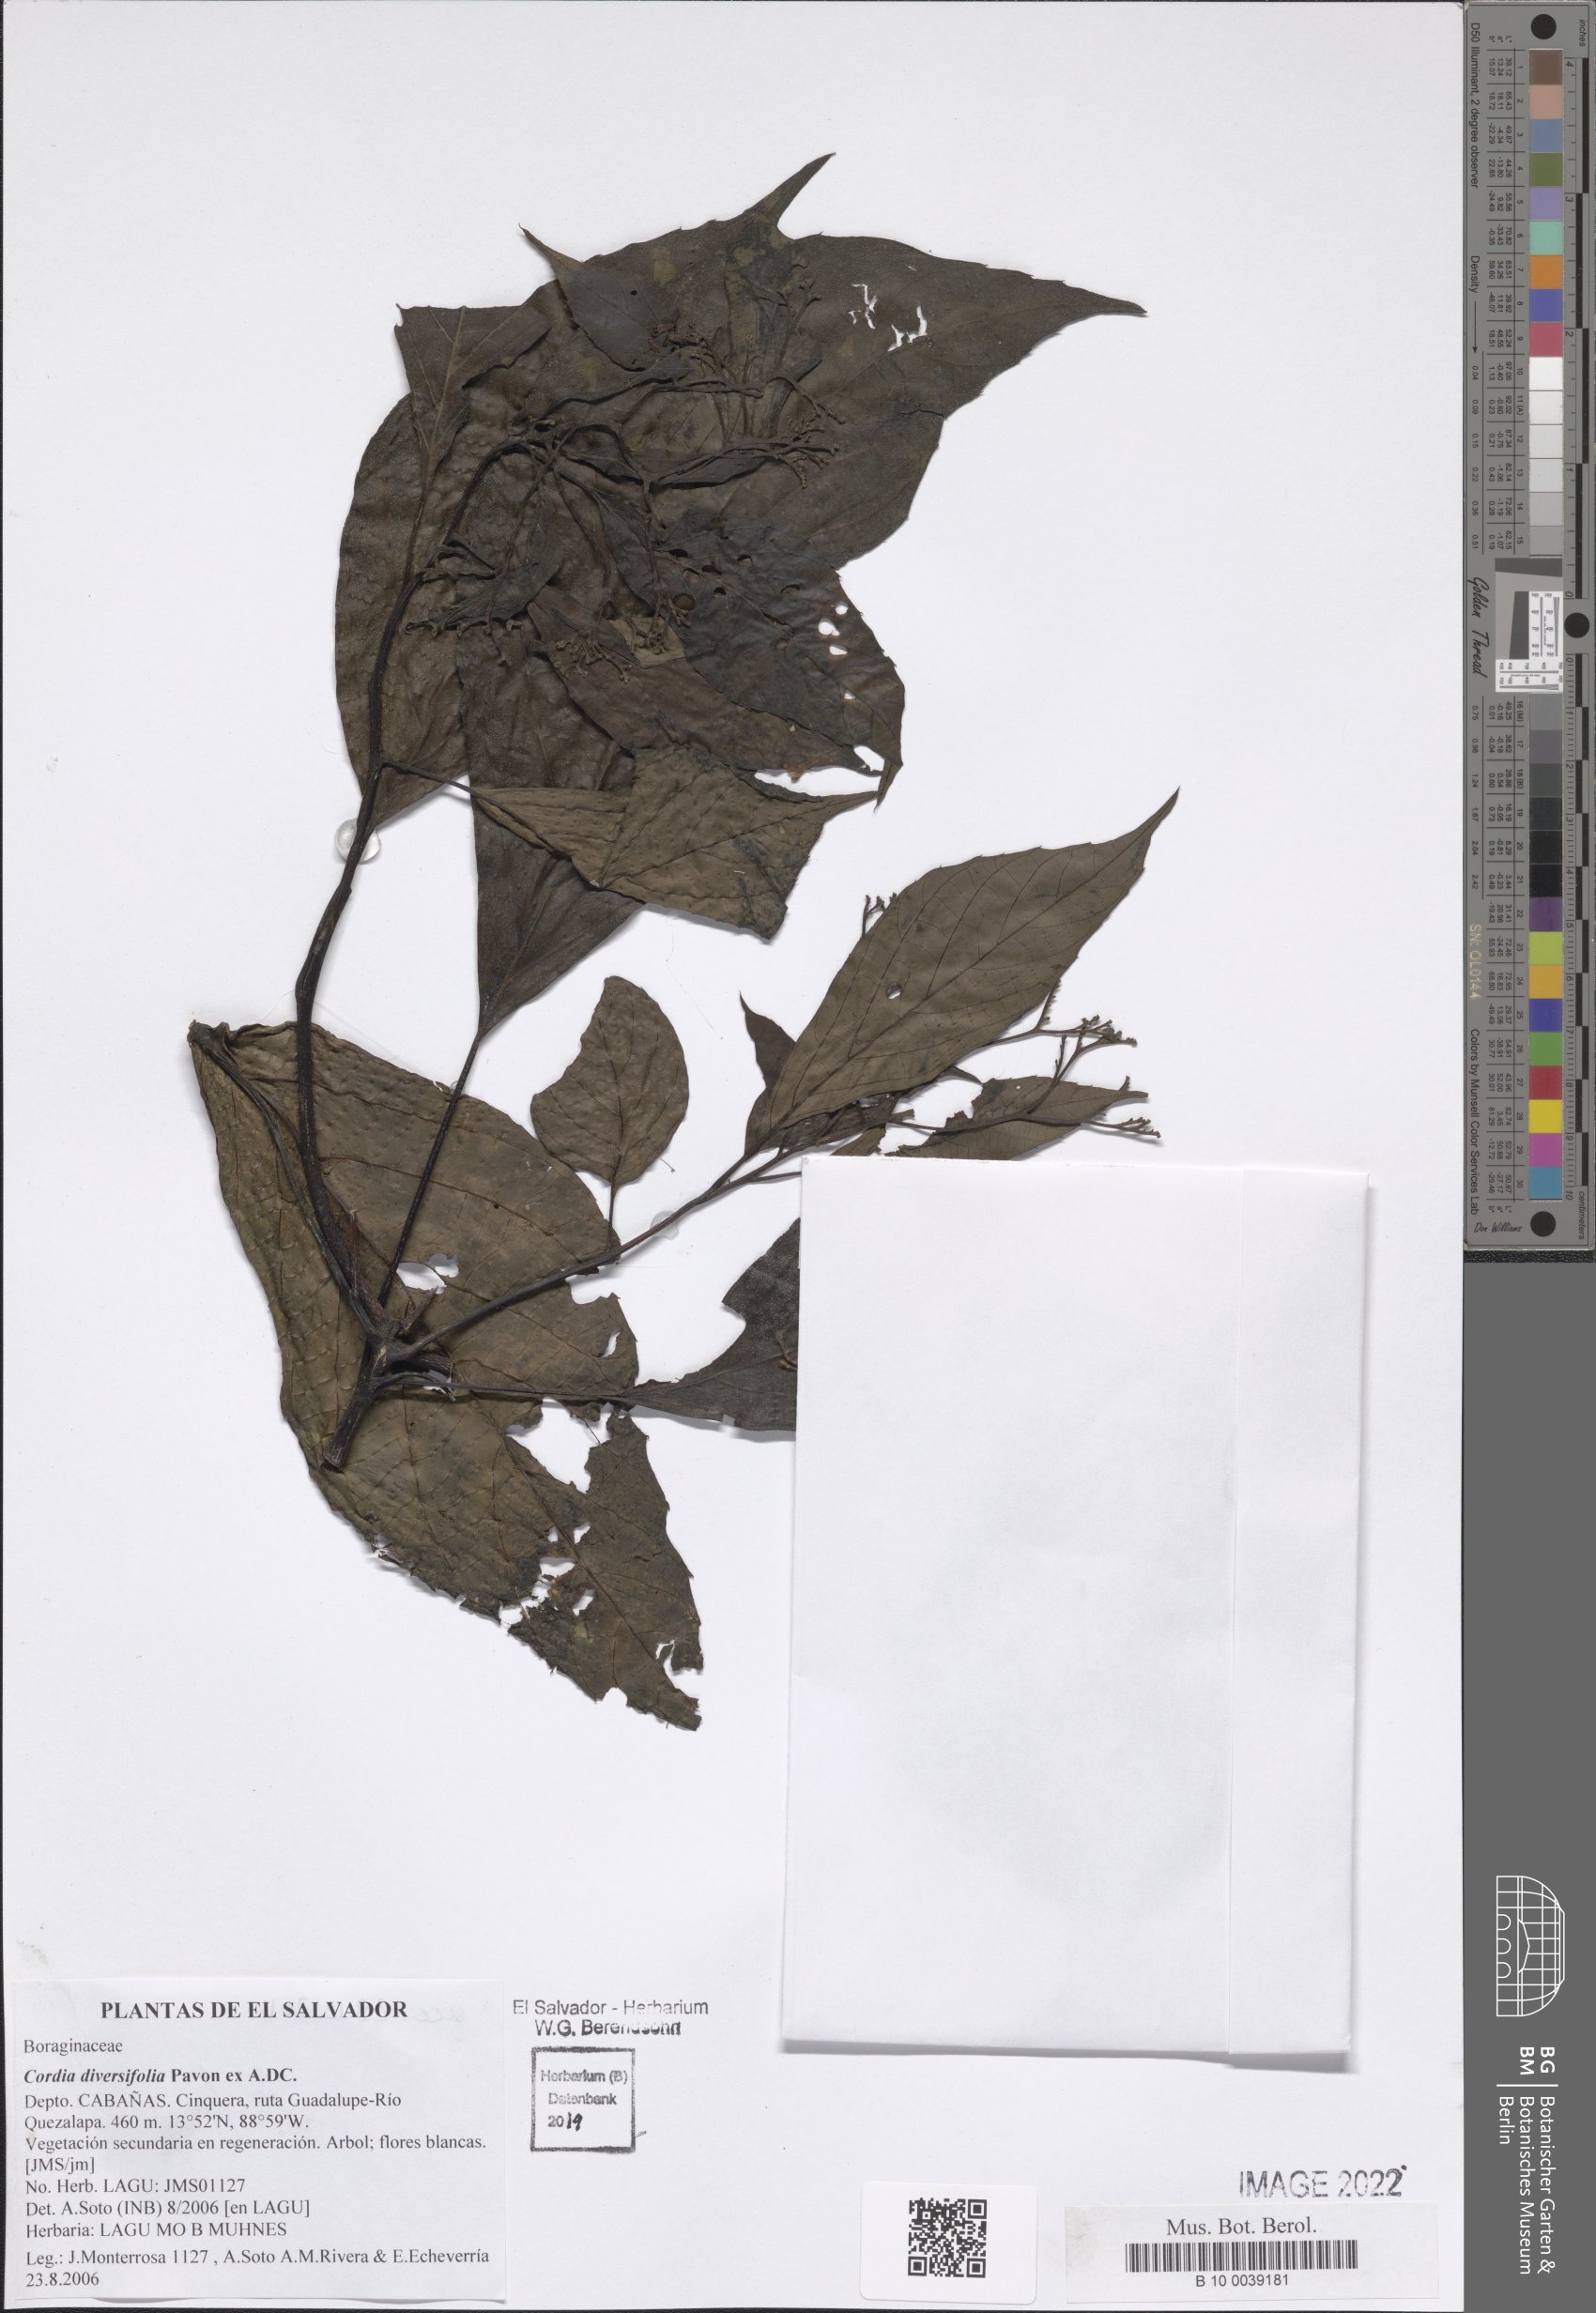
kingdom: Plantae
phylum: Tracheophyta
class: Magnoliopsida
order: Boraginales
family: Cordiaceae
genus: Cordia
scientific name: Cordia diversifolia
